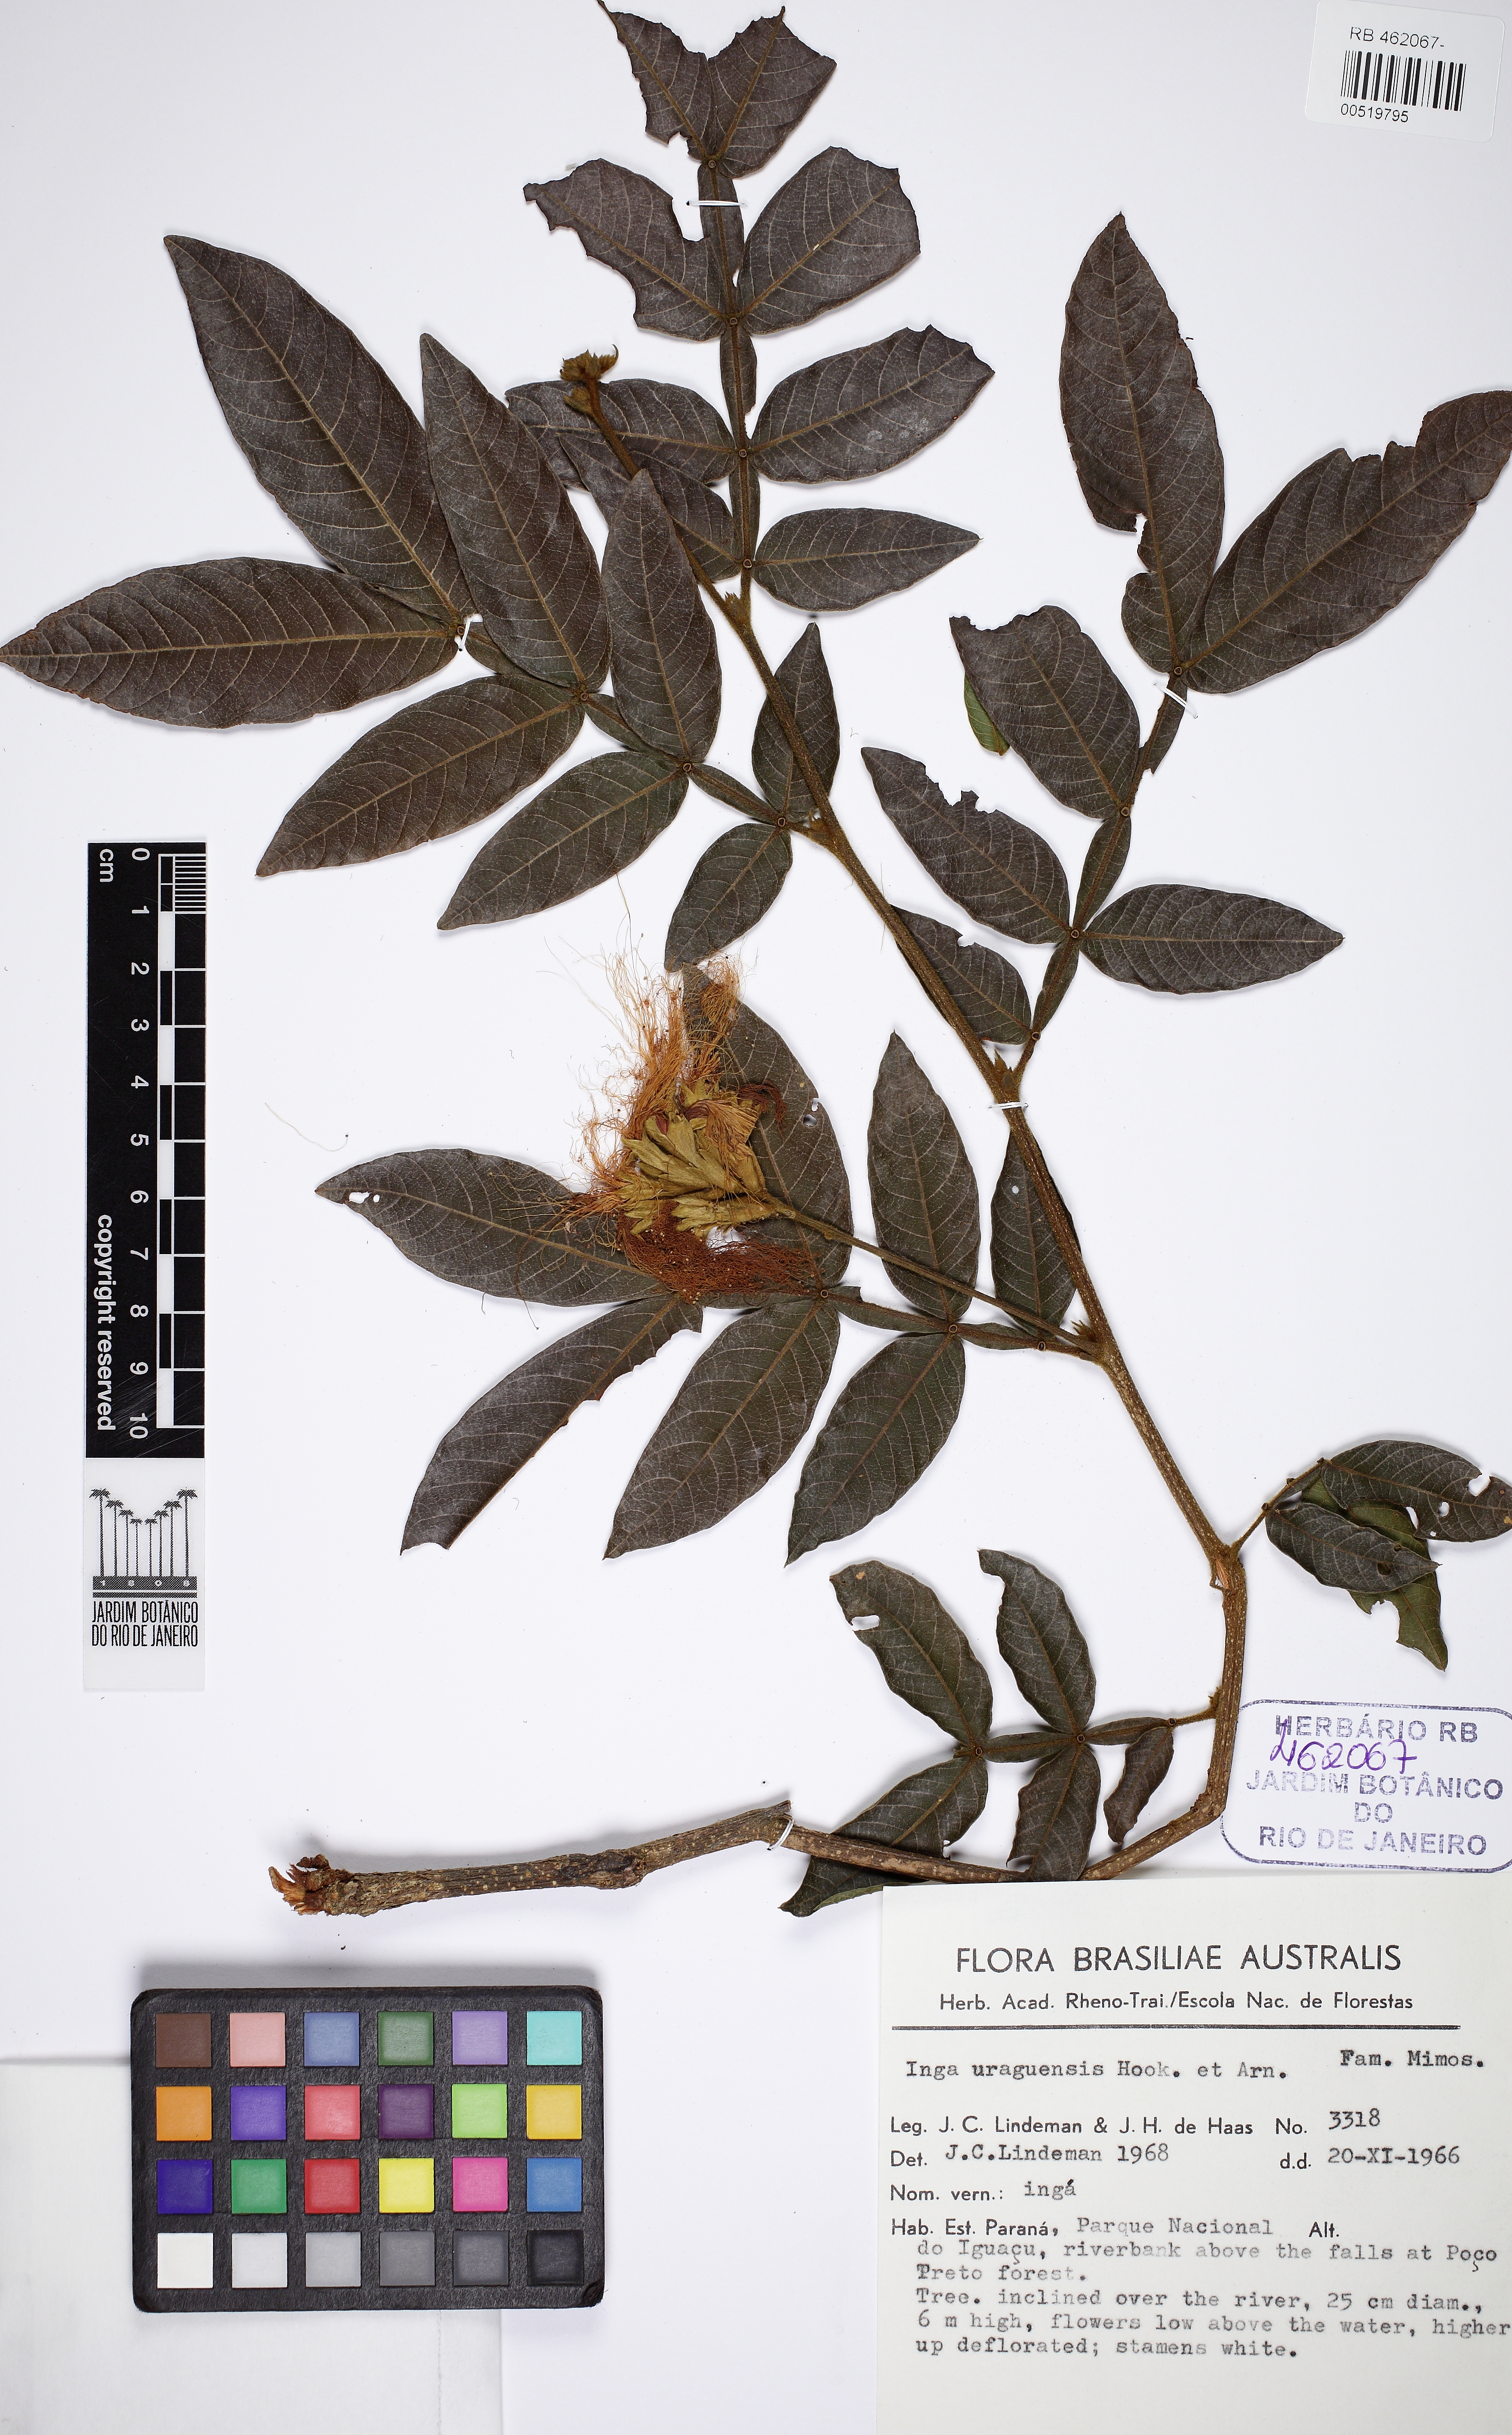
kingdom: Plantae
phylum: Tracheophyta
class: Magnoliopsida
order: Fabales
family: Fabaceae
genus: Inga
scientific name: Inga affinis
